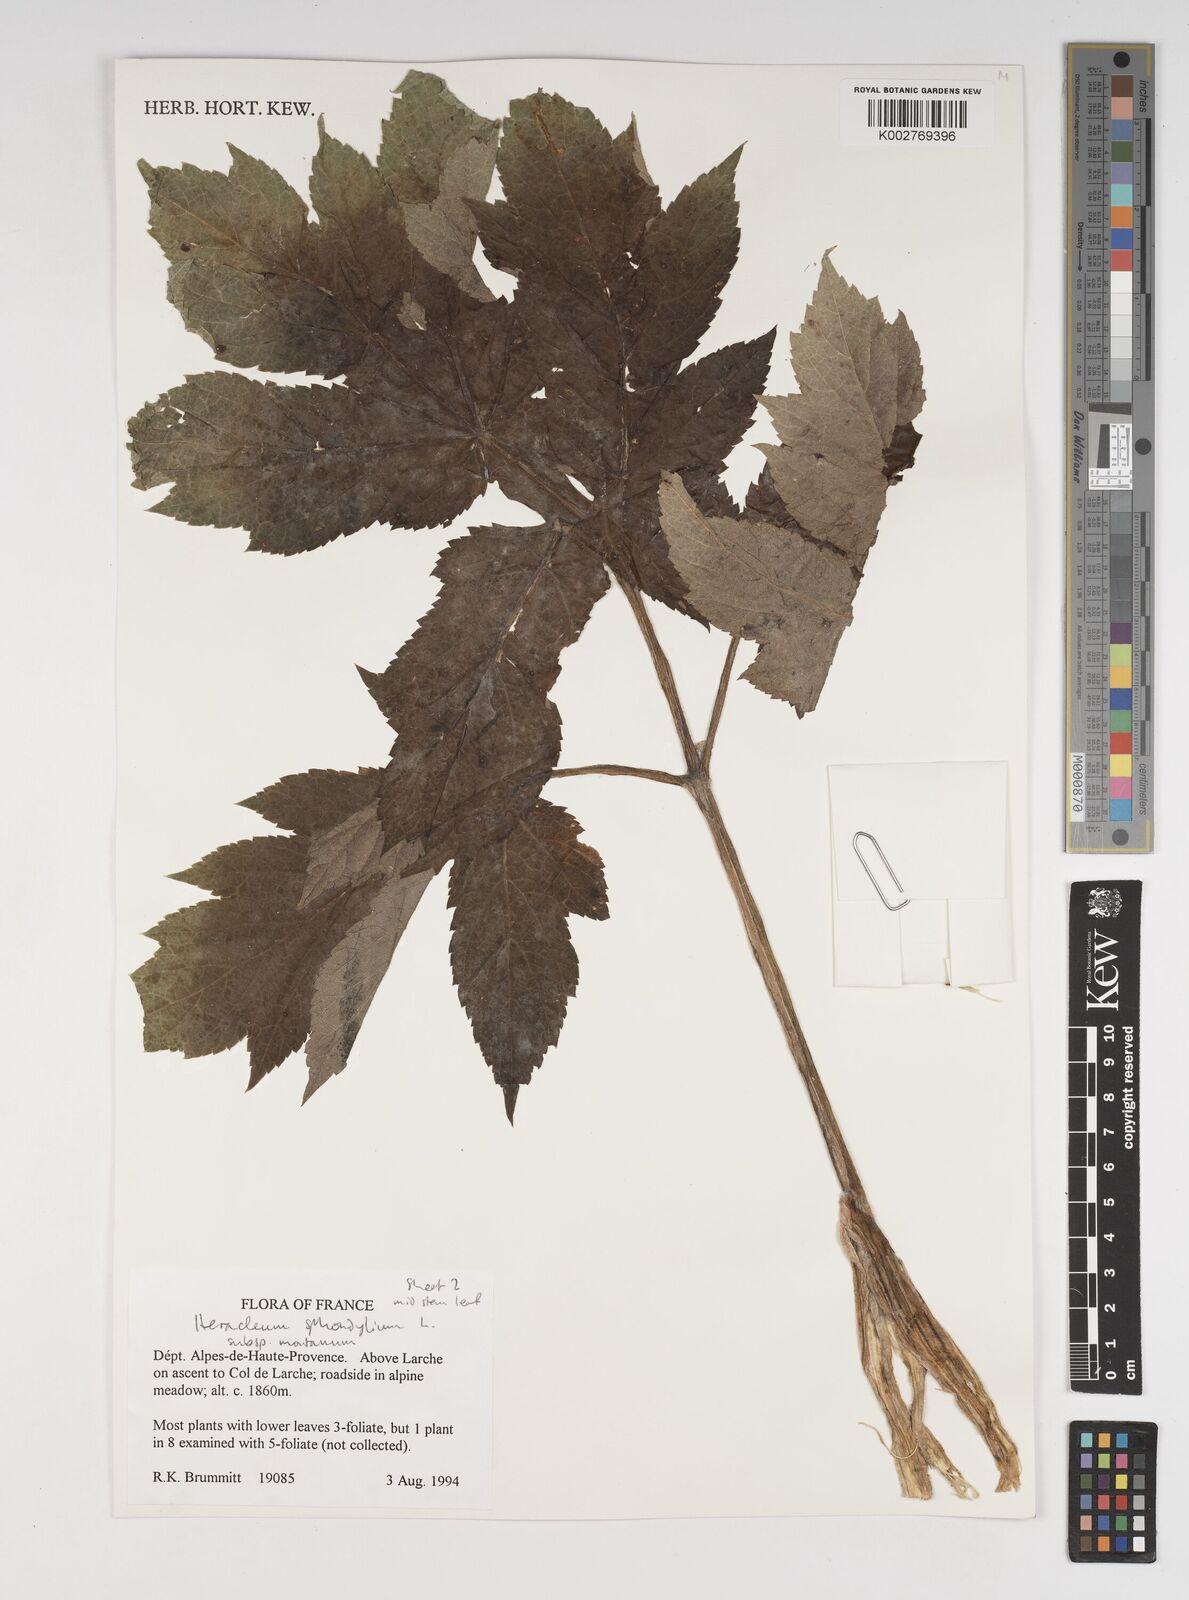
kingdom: Plantae
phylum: Tracheophyta
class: Magnoliopsida
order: Apiales
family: Apiaceae
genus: Heracleum
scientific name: Heracleum sphondylium
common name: Hogweed
